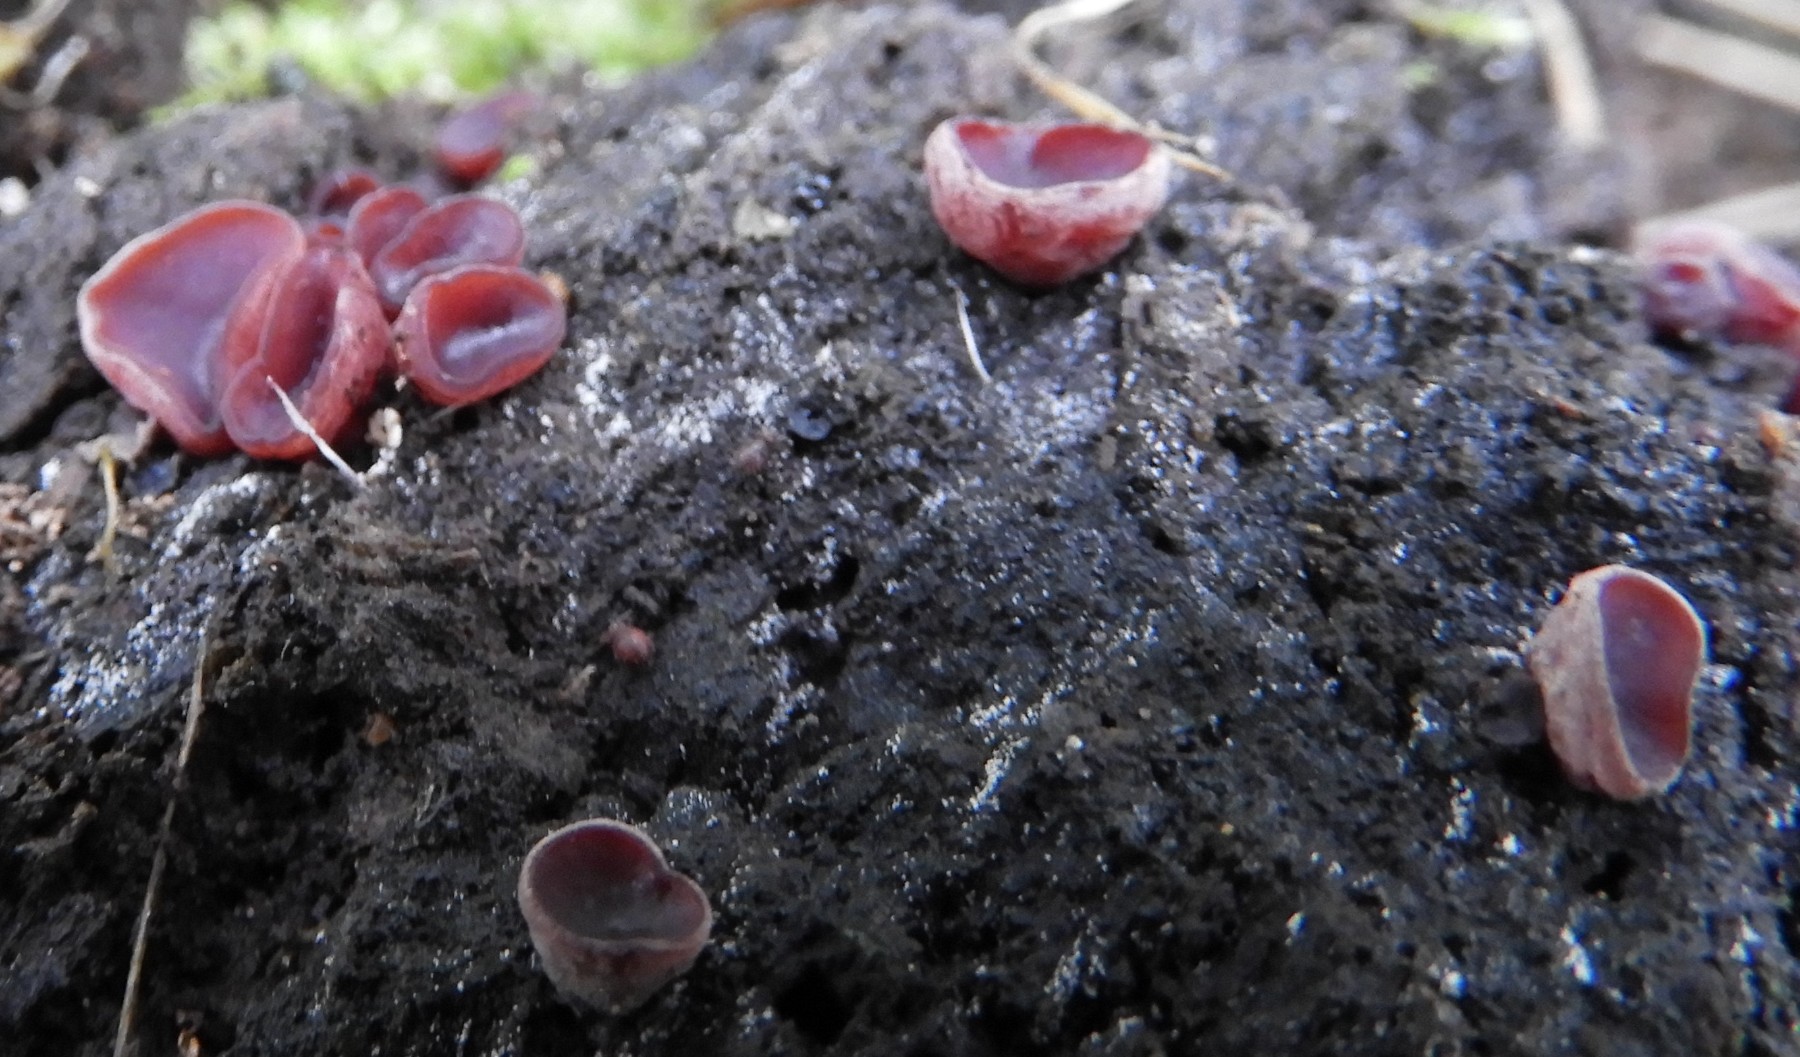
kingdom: Fungi
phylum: Ascomycota
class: Leotiomycetes
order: Helotiales
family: Gelatinodiscaceae
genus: Ascocoryne
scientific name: Ascocoryne cylichnium
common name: stor sejskive
